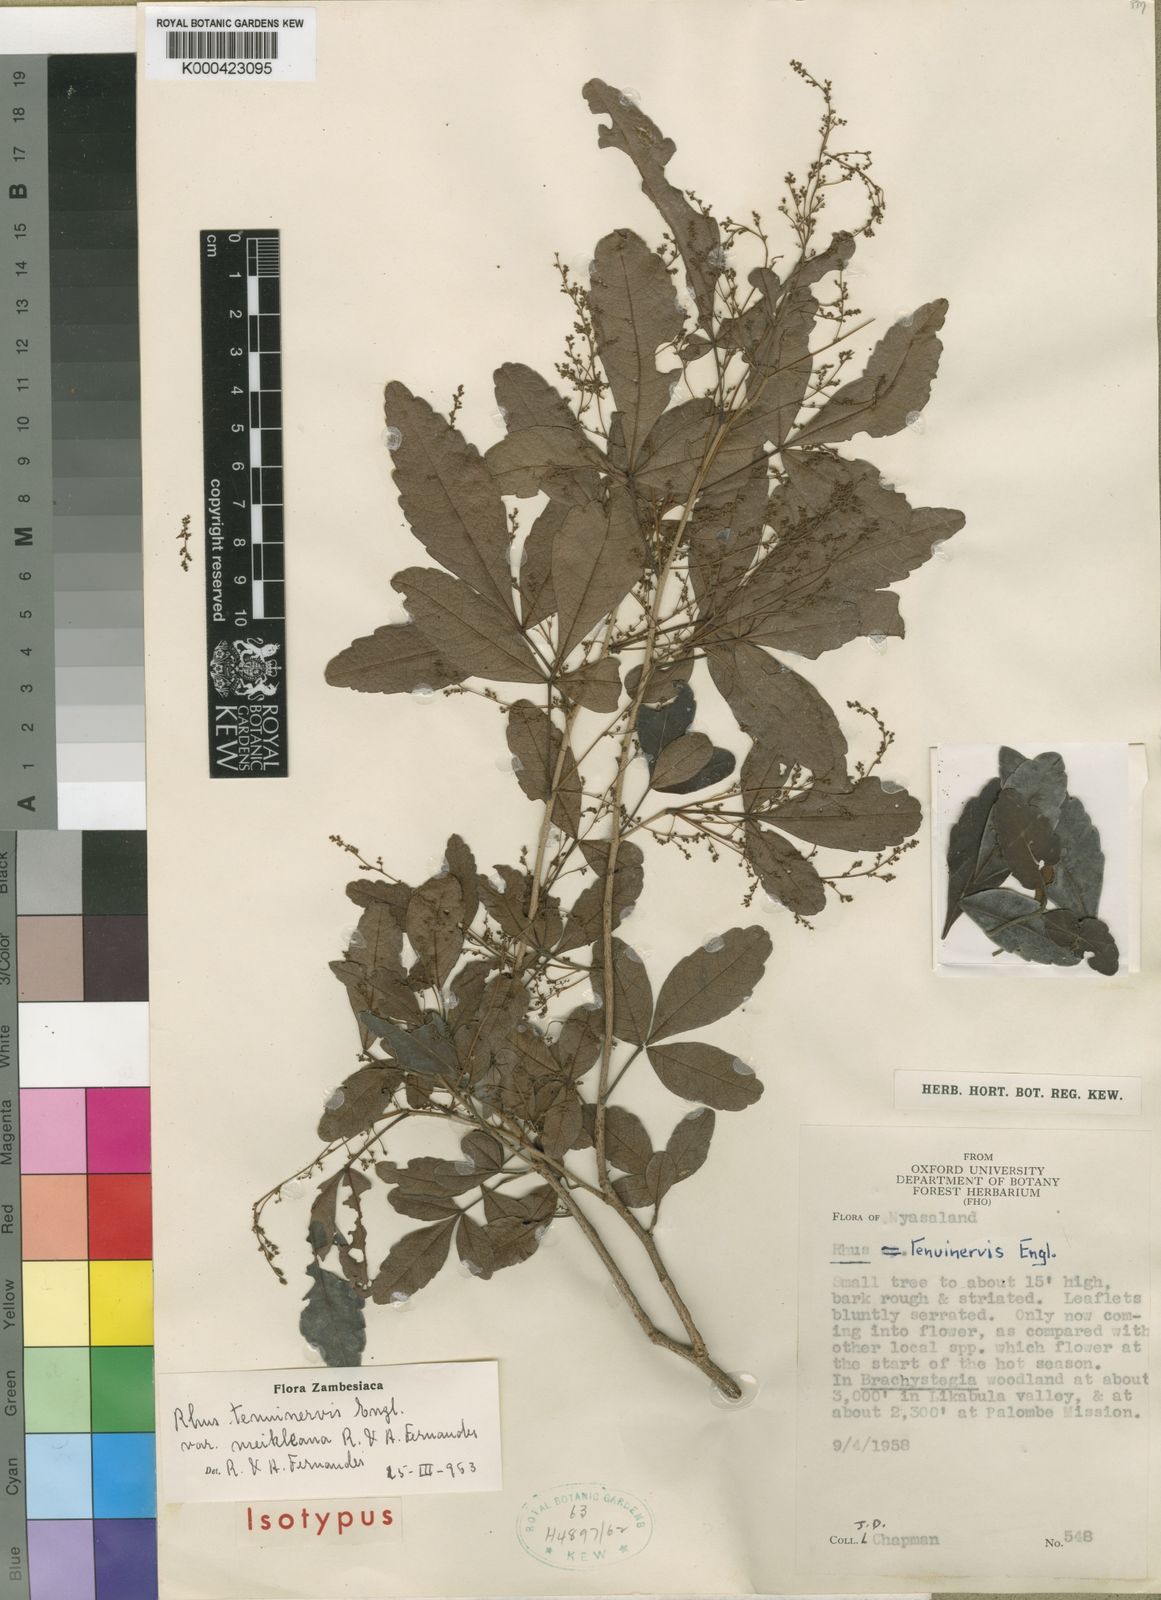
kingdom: Plantae
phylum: Tracheophyta
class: Magnoliopsida
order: Sapindales
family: Anacardiaceae
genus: Searsia
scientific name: Searsia tenuinervis
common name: Hyaena taaibos
